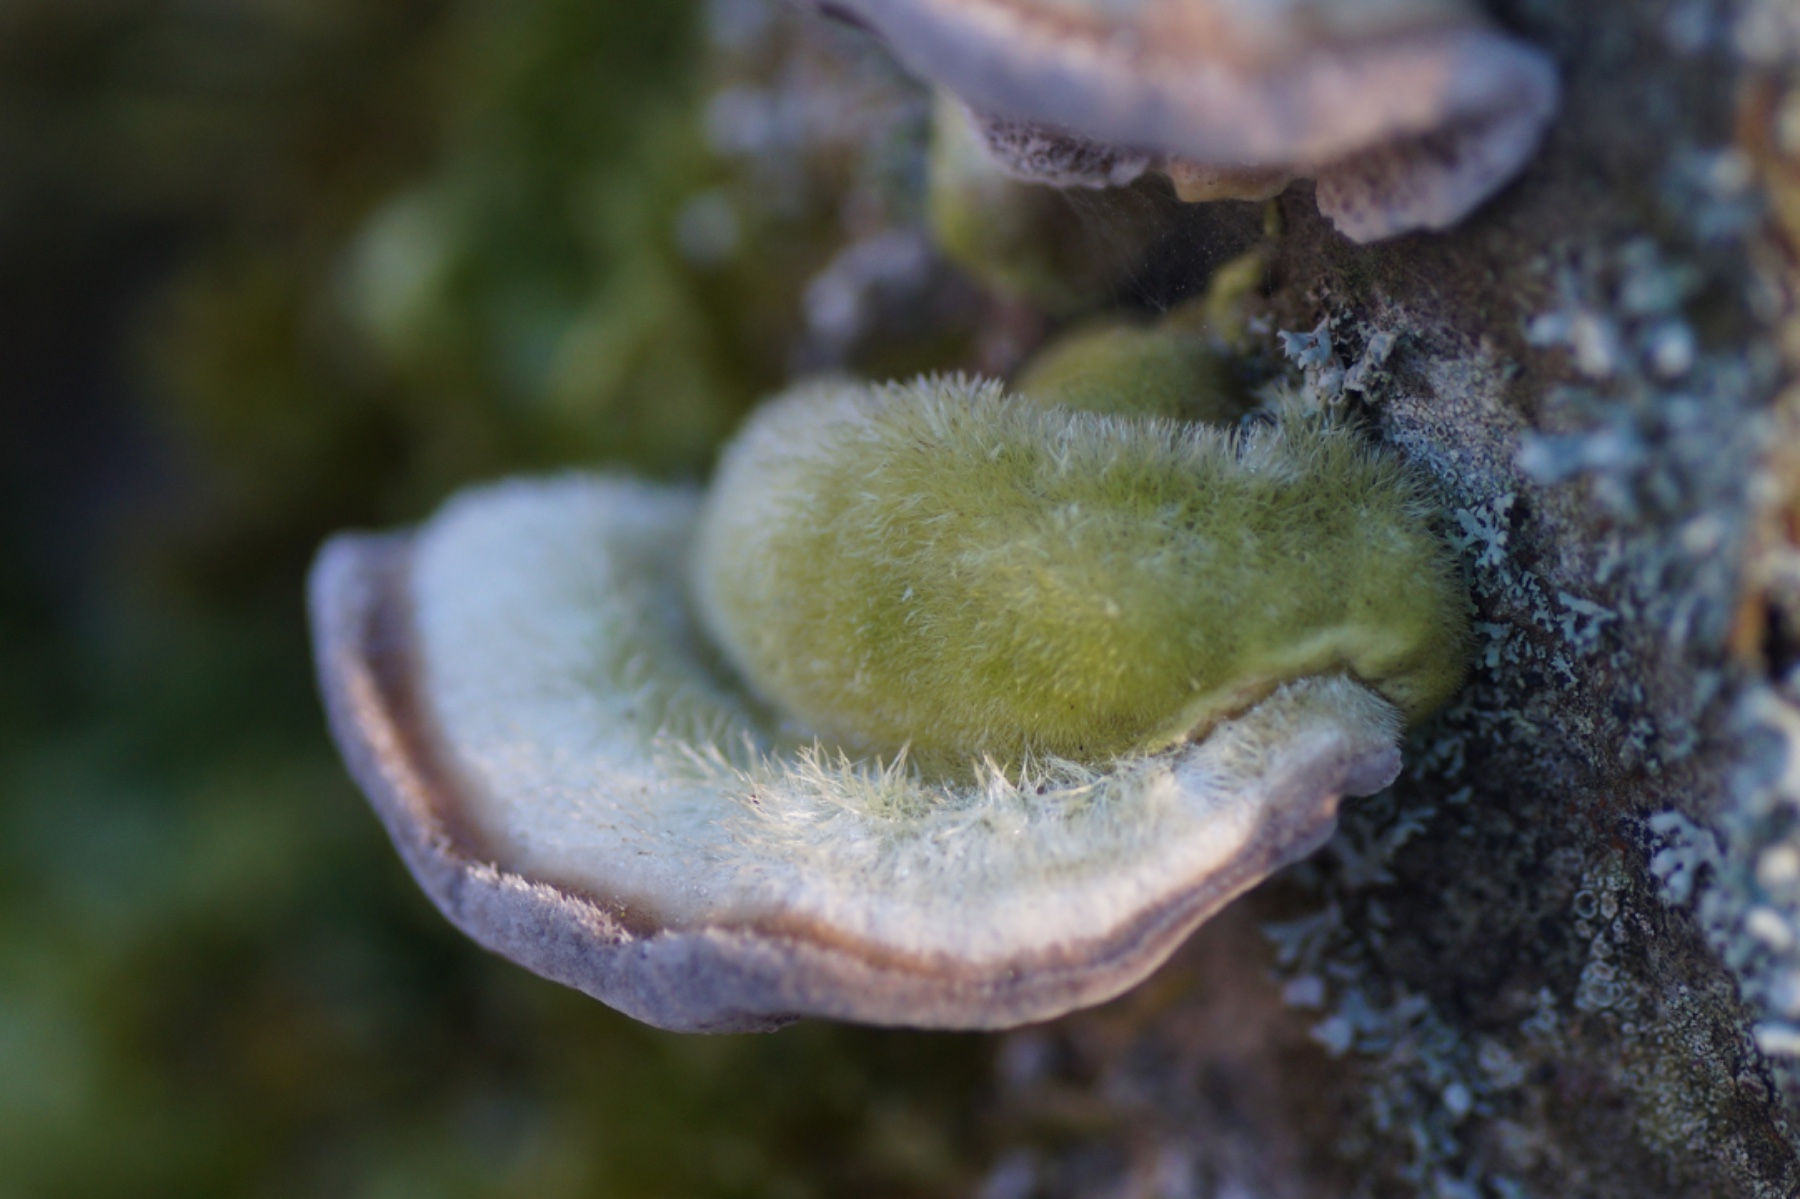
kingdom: Fungi
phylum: Basidiomycota
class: Agaricomycetes
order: Polyporales
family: Polyporaceae
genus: Trametes
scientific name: Trametes hirsuta
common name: håret læderporesvamp
